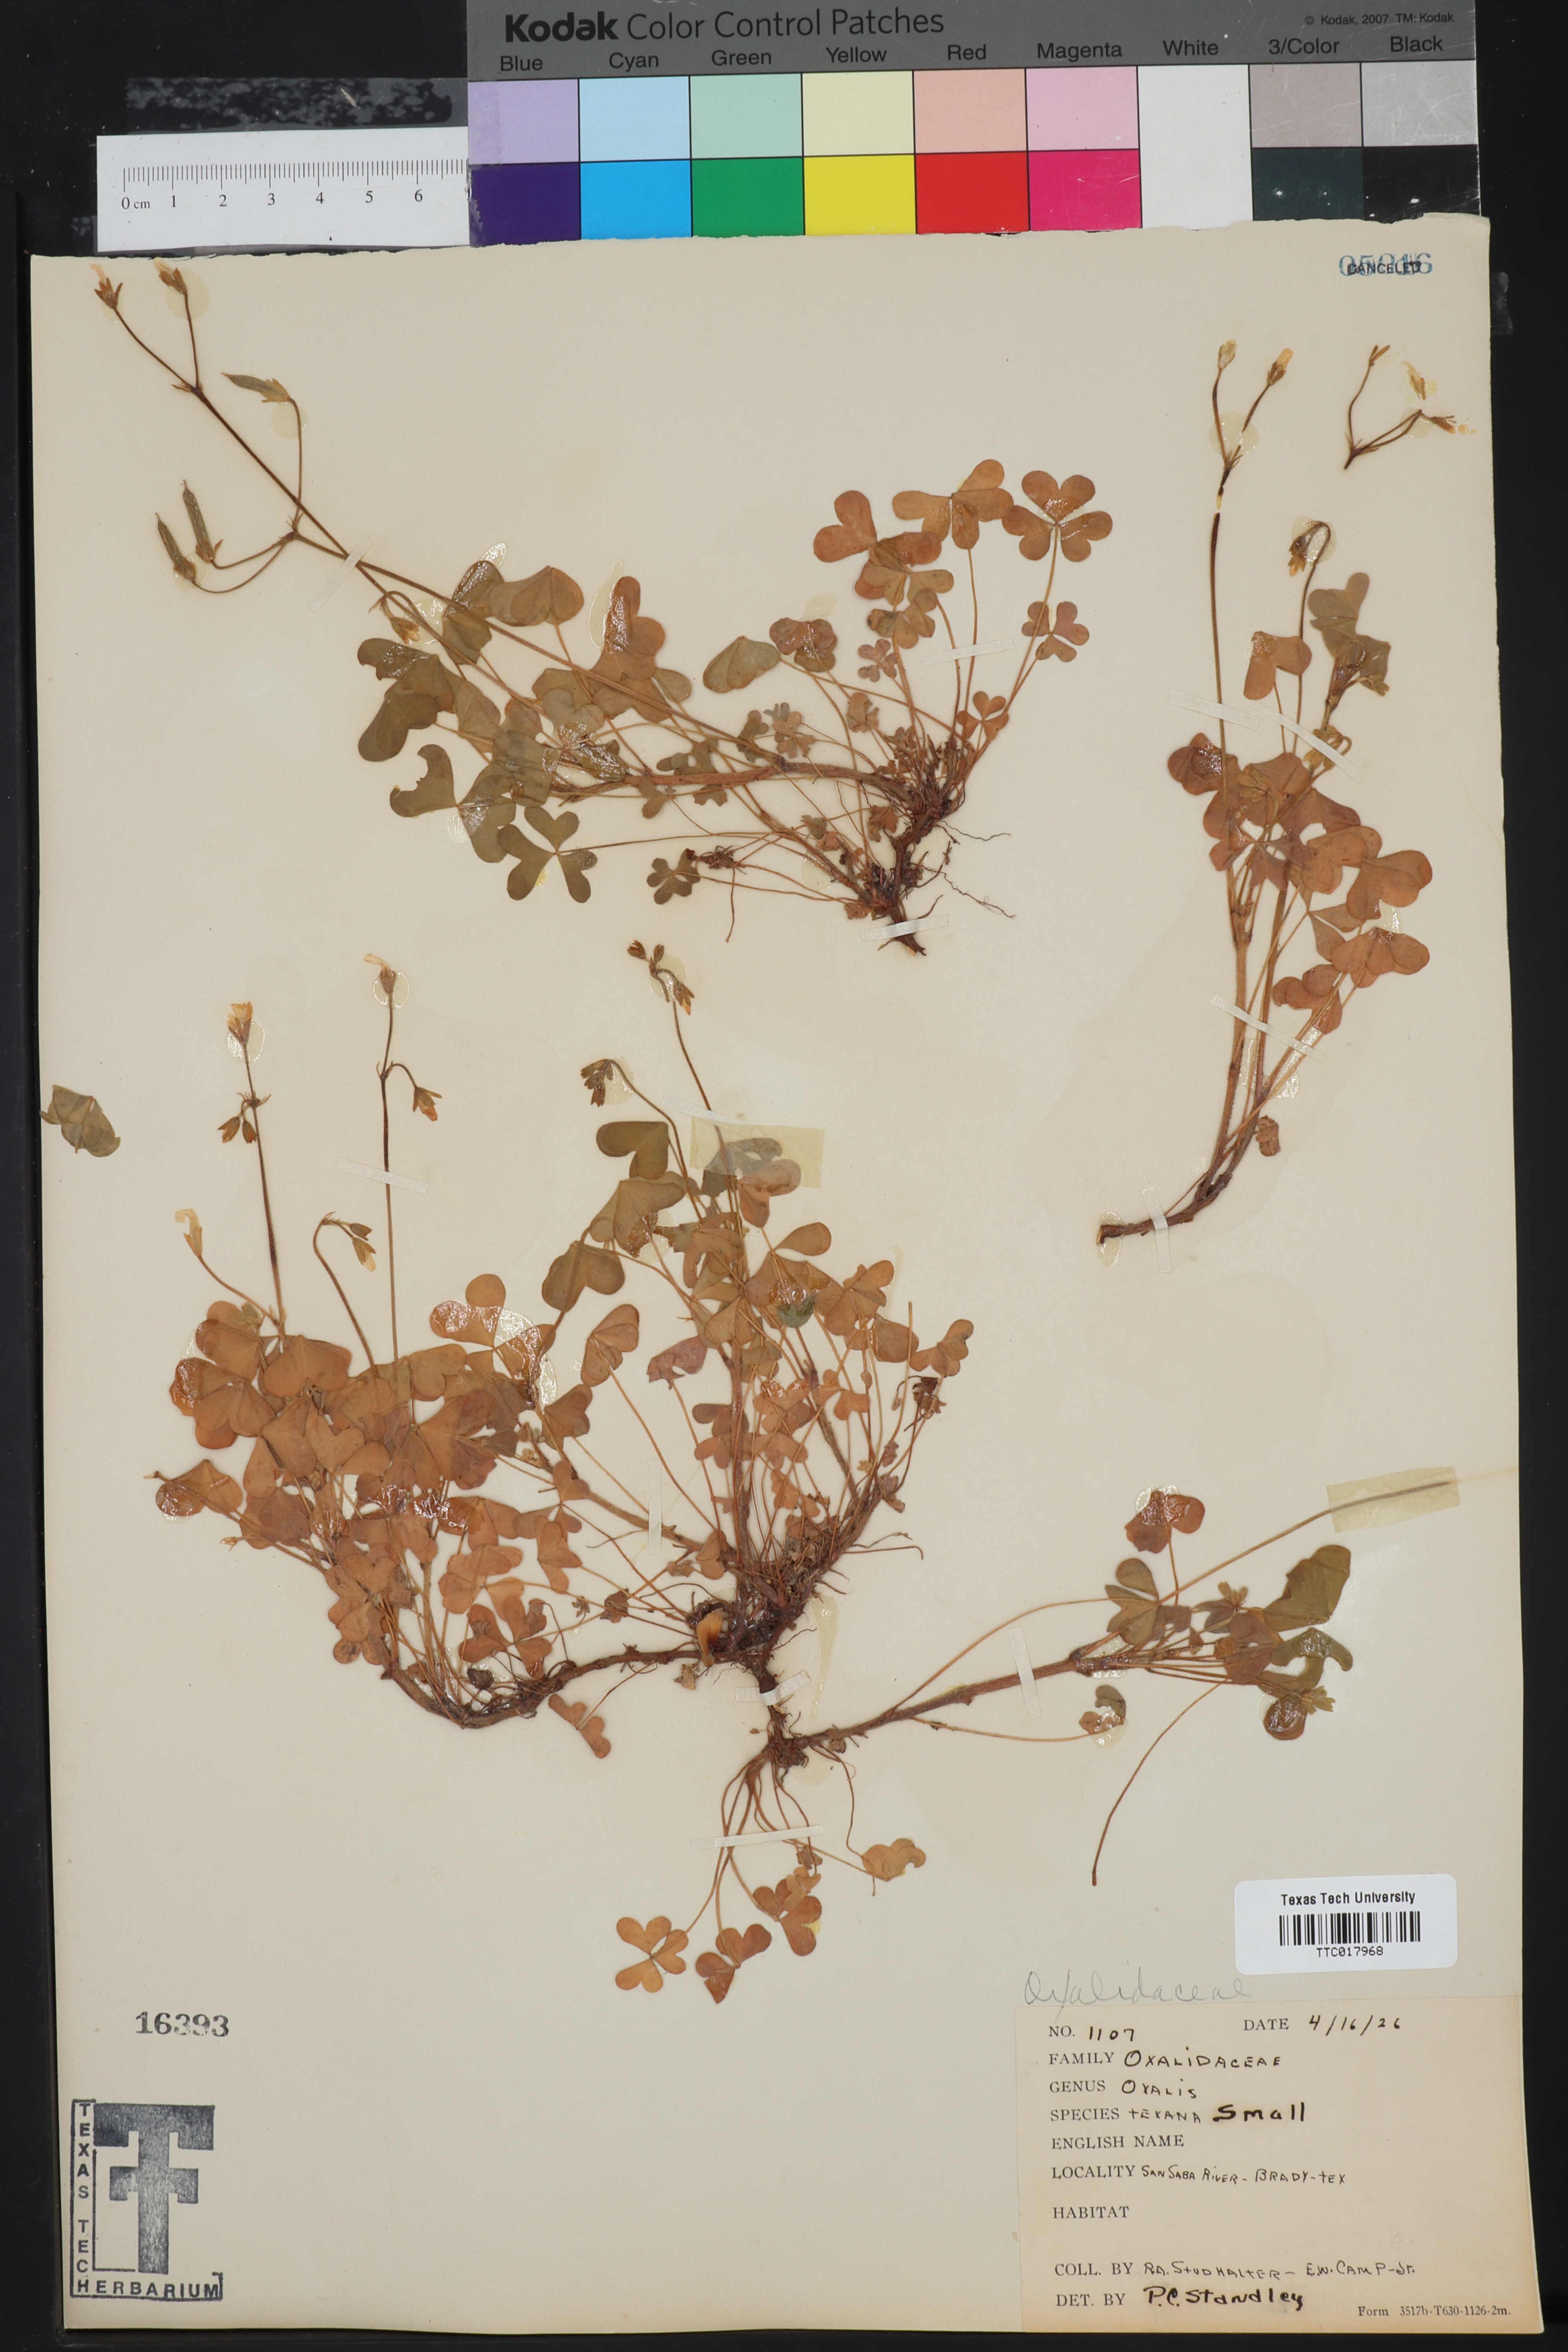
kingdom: Plantae
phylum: Tracheophyta
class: Magnoliopsida
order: Oxalidales
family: Oxalidaceae
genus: Oxalis
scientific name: Oxalis texana
